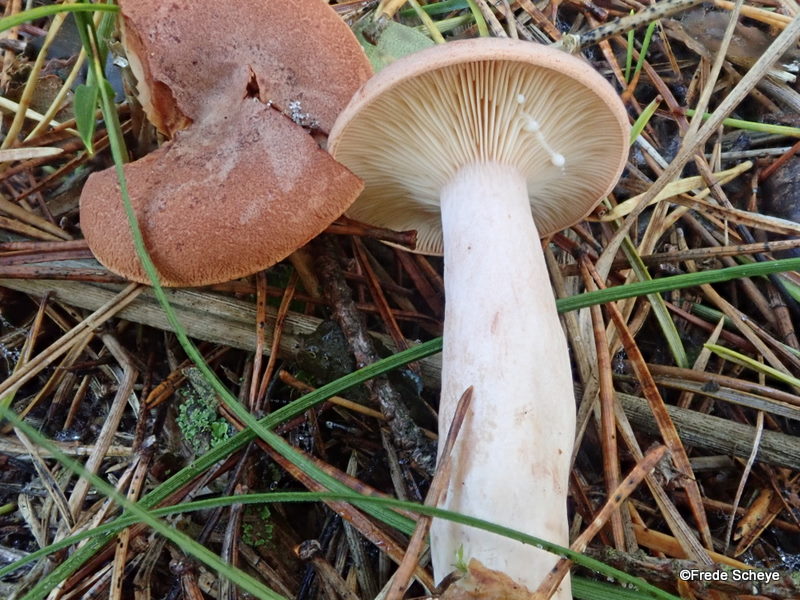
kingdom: Fungi
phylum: Basidiomycota
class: Agaricomycetes
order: Russulales
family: Russulaceae
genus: Lactarius
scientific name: Lactarius rufus
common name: rødbrun mælkehat
